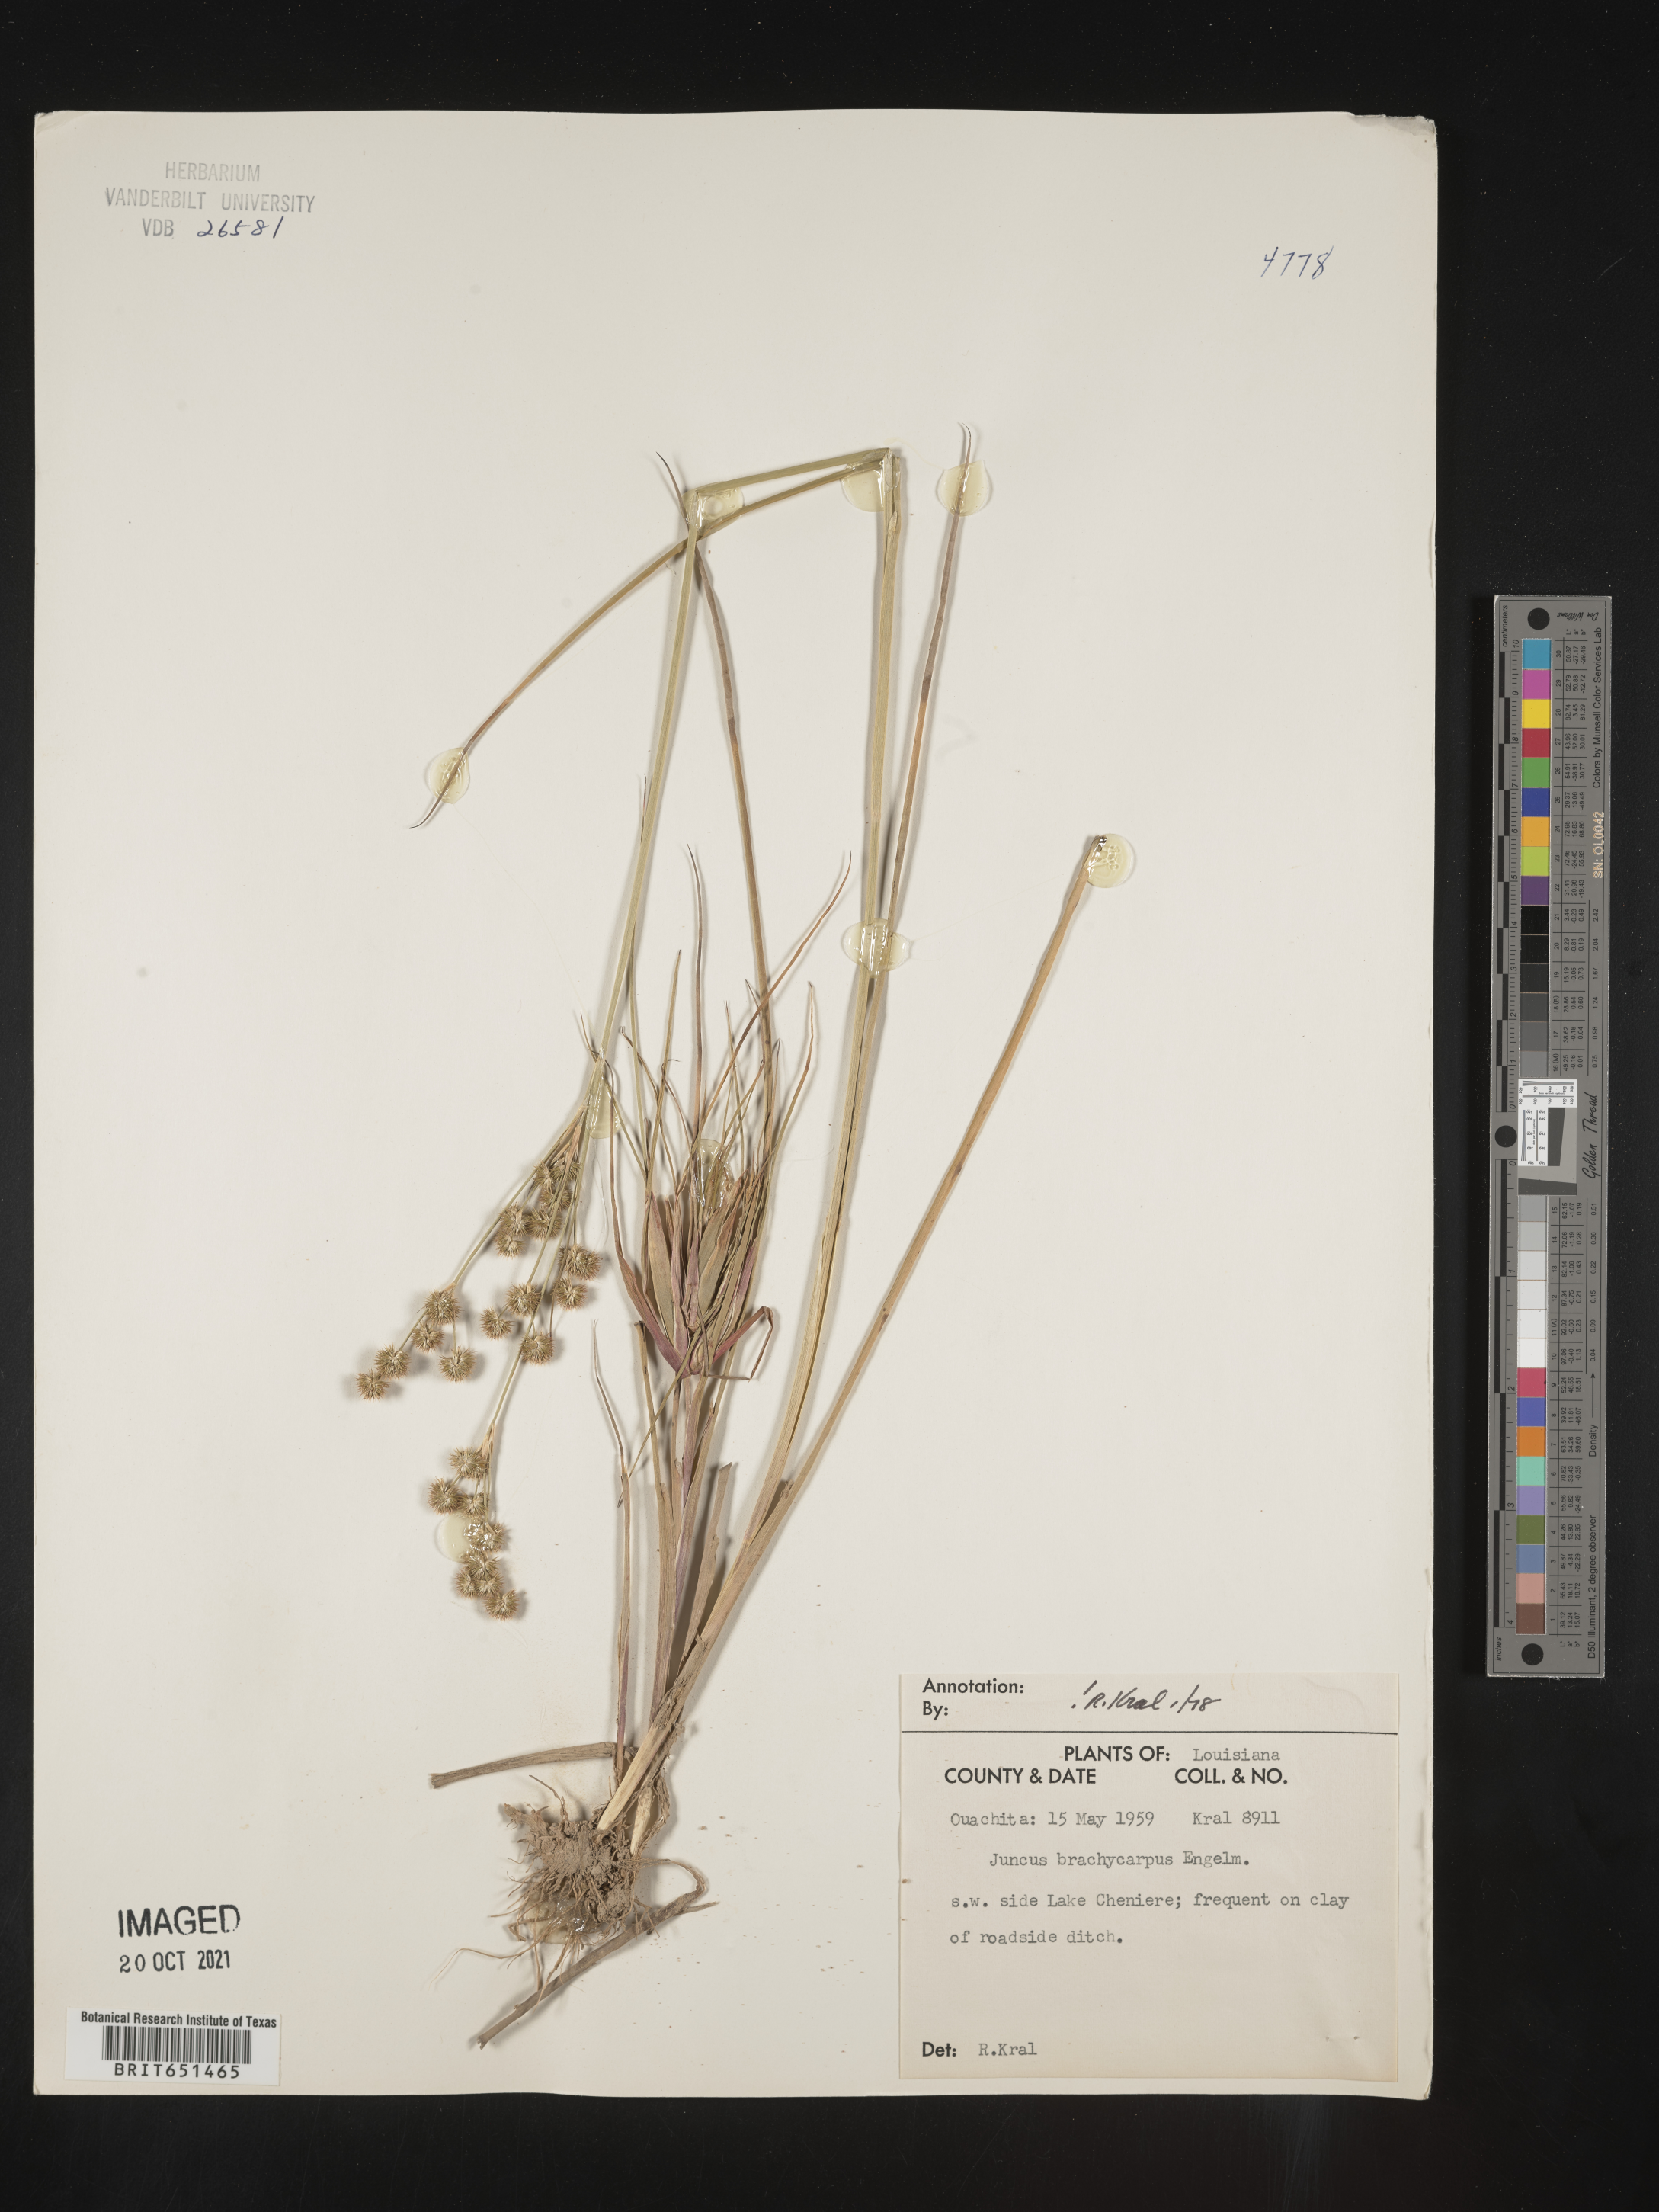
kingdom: Plantae
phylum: Tracheophyta
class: Liliopsida
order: Poales
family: Juncaceae
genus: Juncus
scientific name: Juncus brachycarpus
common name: Shore rush
